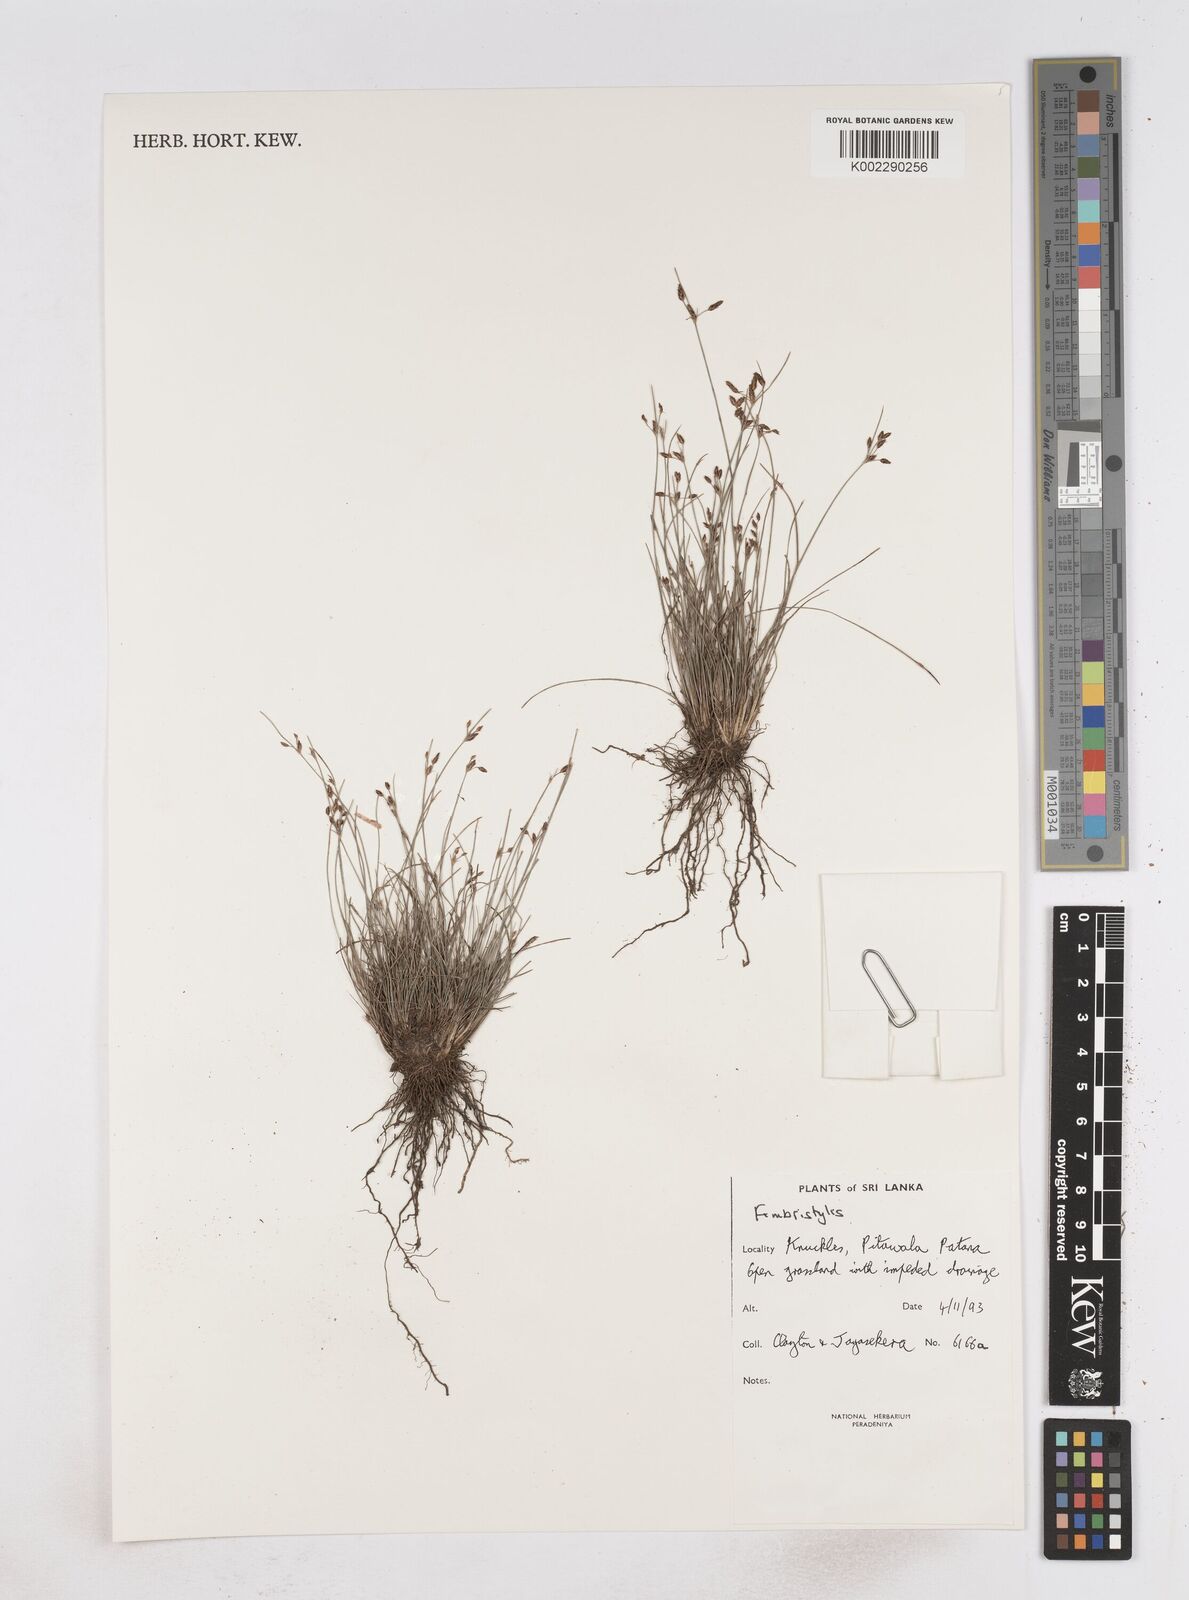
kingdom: Plantae
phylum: Tracheophyta
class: Liliopsida
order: Poales
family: Cyperaceae
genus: Fimbristylis
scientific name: Fimbristylis
